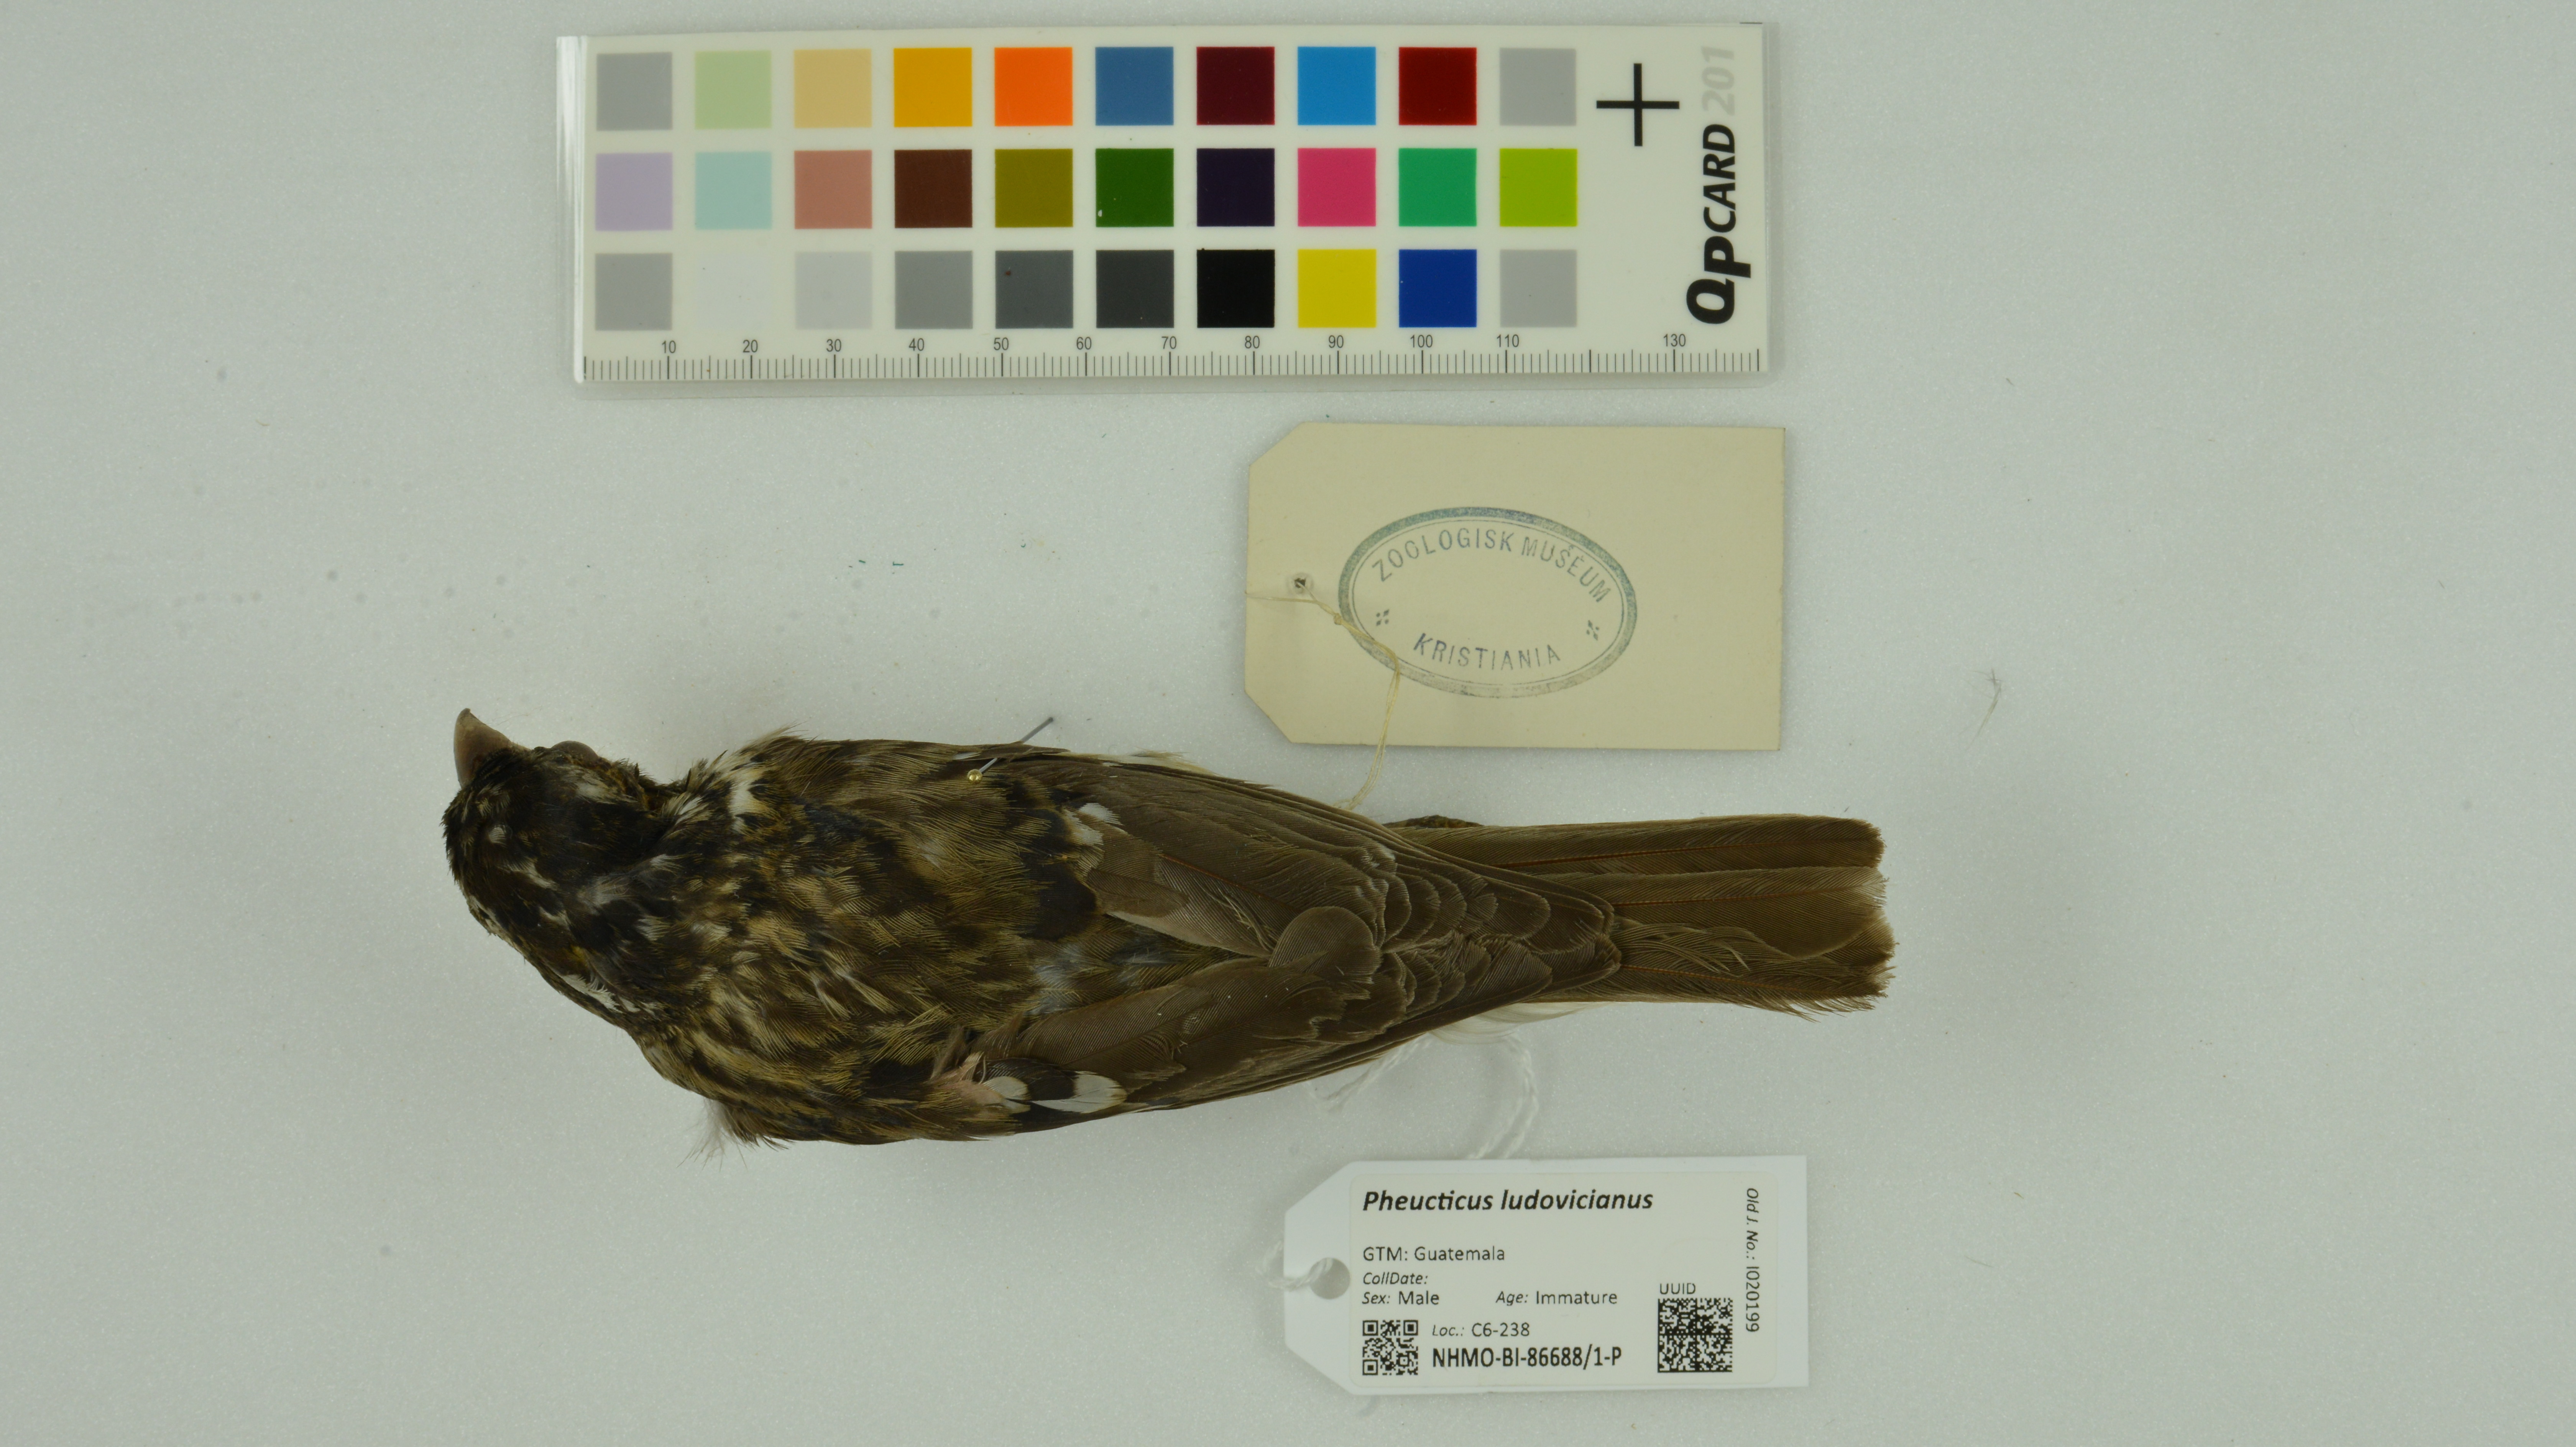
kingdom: Animalia
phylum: Chordata
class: Aves
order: Passeriformes
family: Cardinalidae
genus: Pheucticus
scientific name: Pheucticus ludovicianus
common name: Rose-breasted grosbeak
